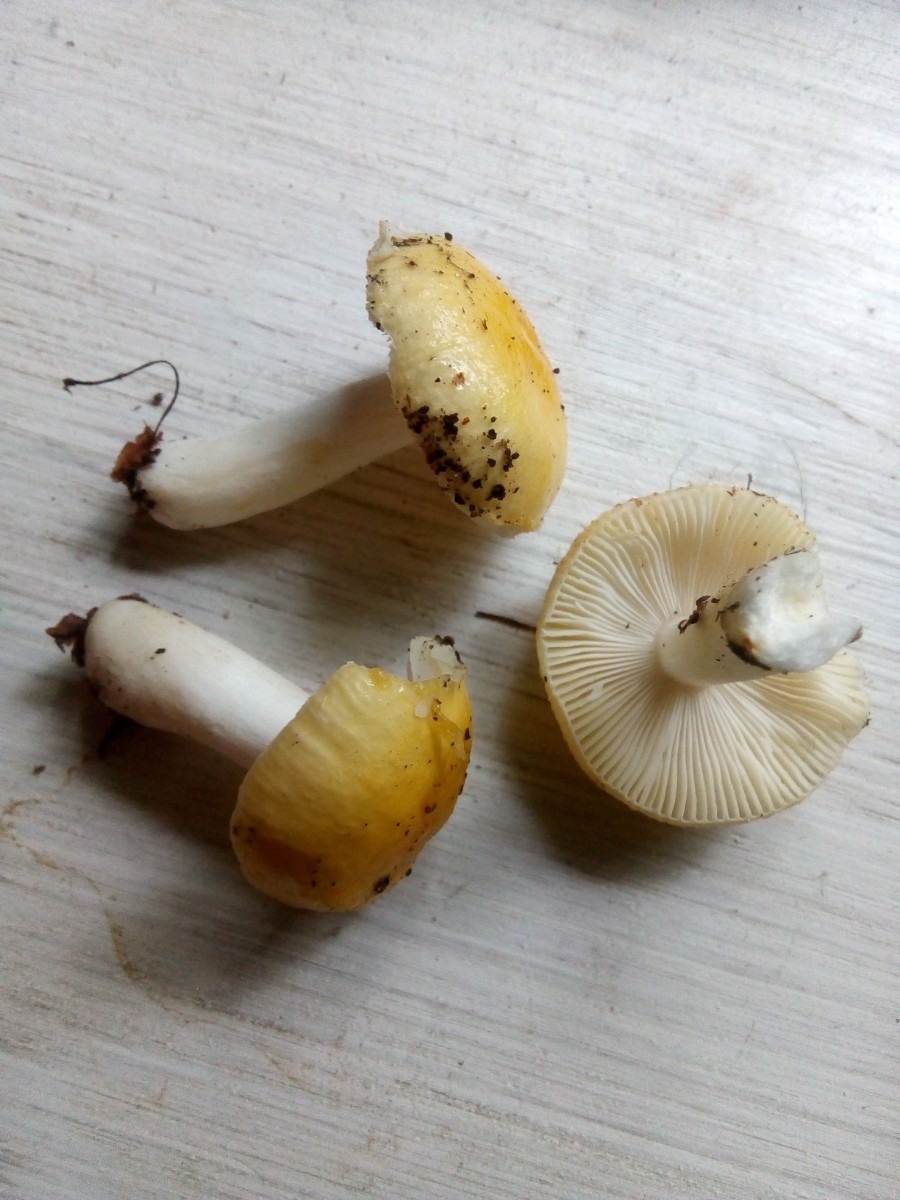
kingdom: Fungi
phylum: Basidiomycota
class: Agaricomycetes
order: Russulales
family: Russulaceae
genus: Russula
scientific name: Russula solaris
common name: sol-skørhat
